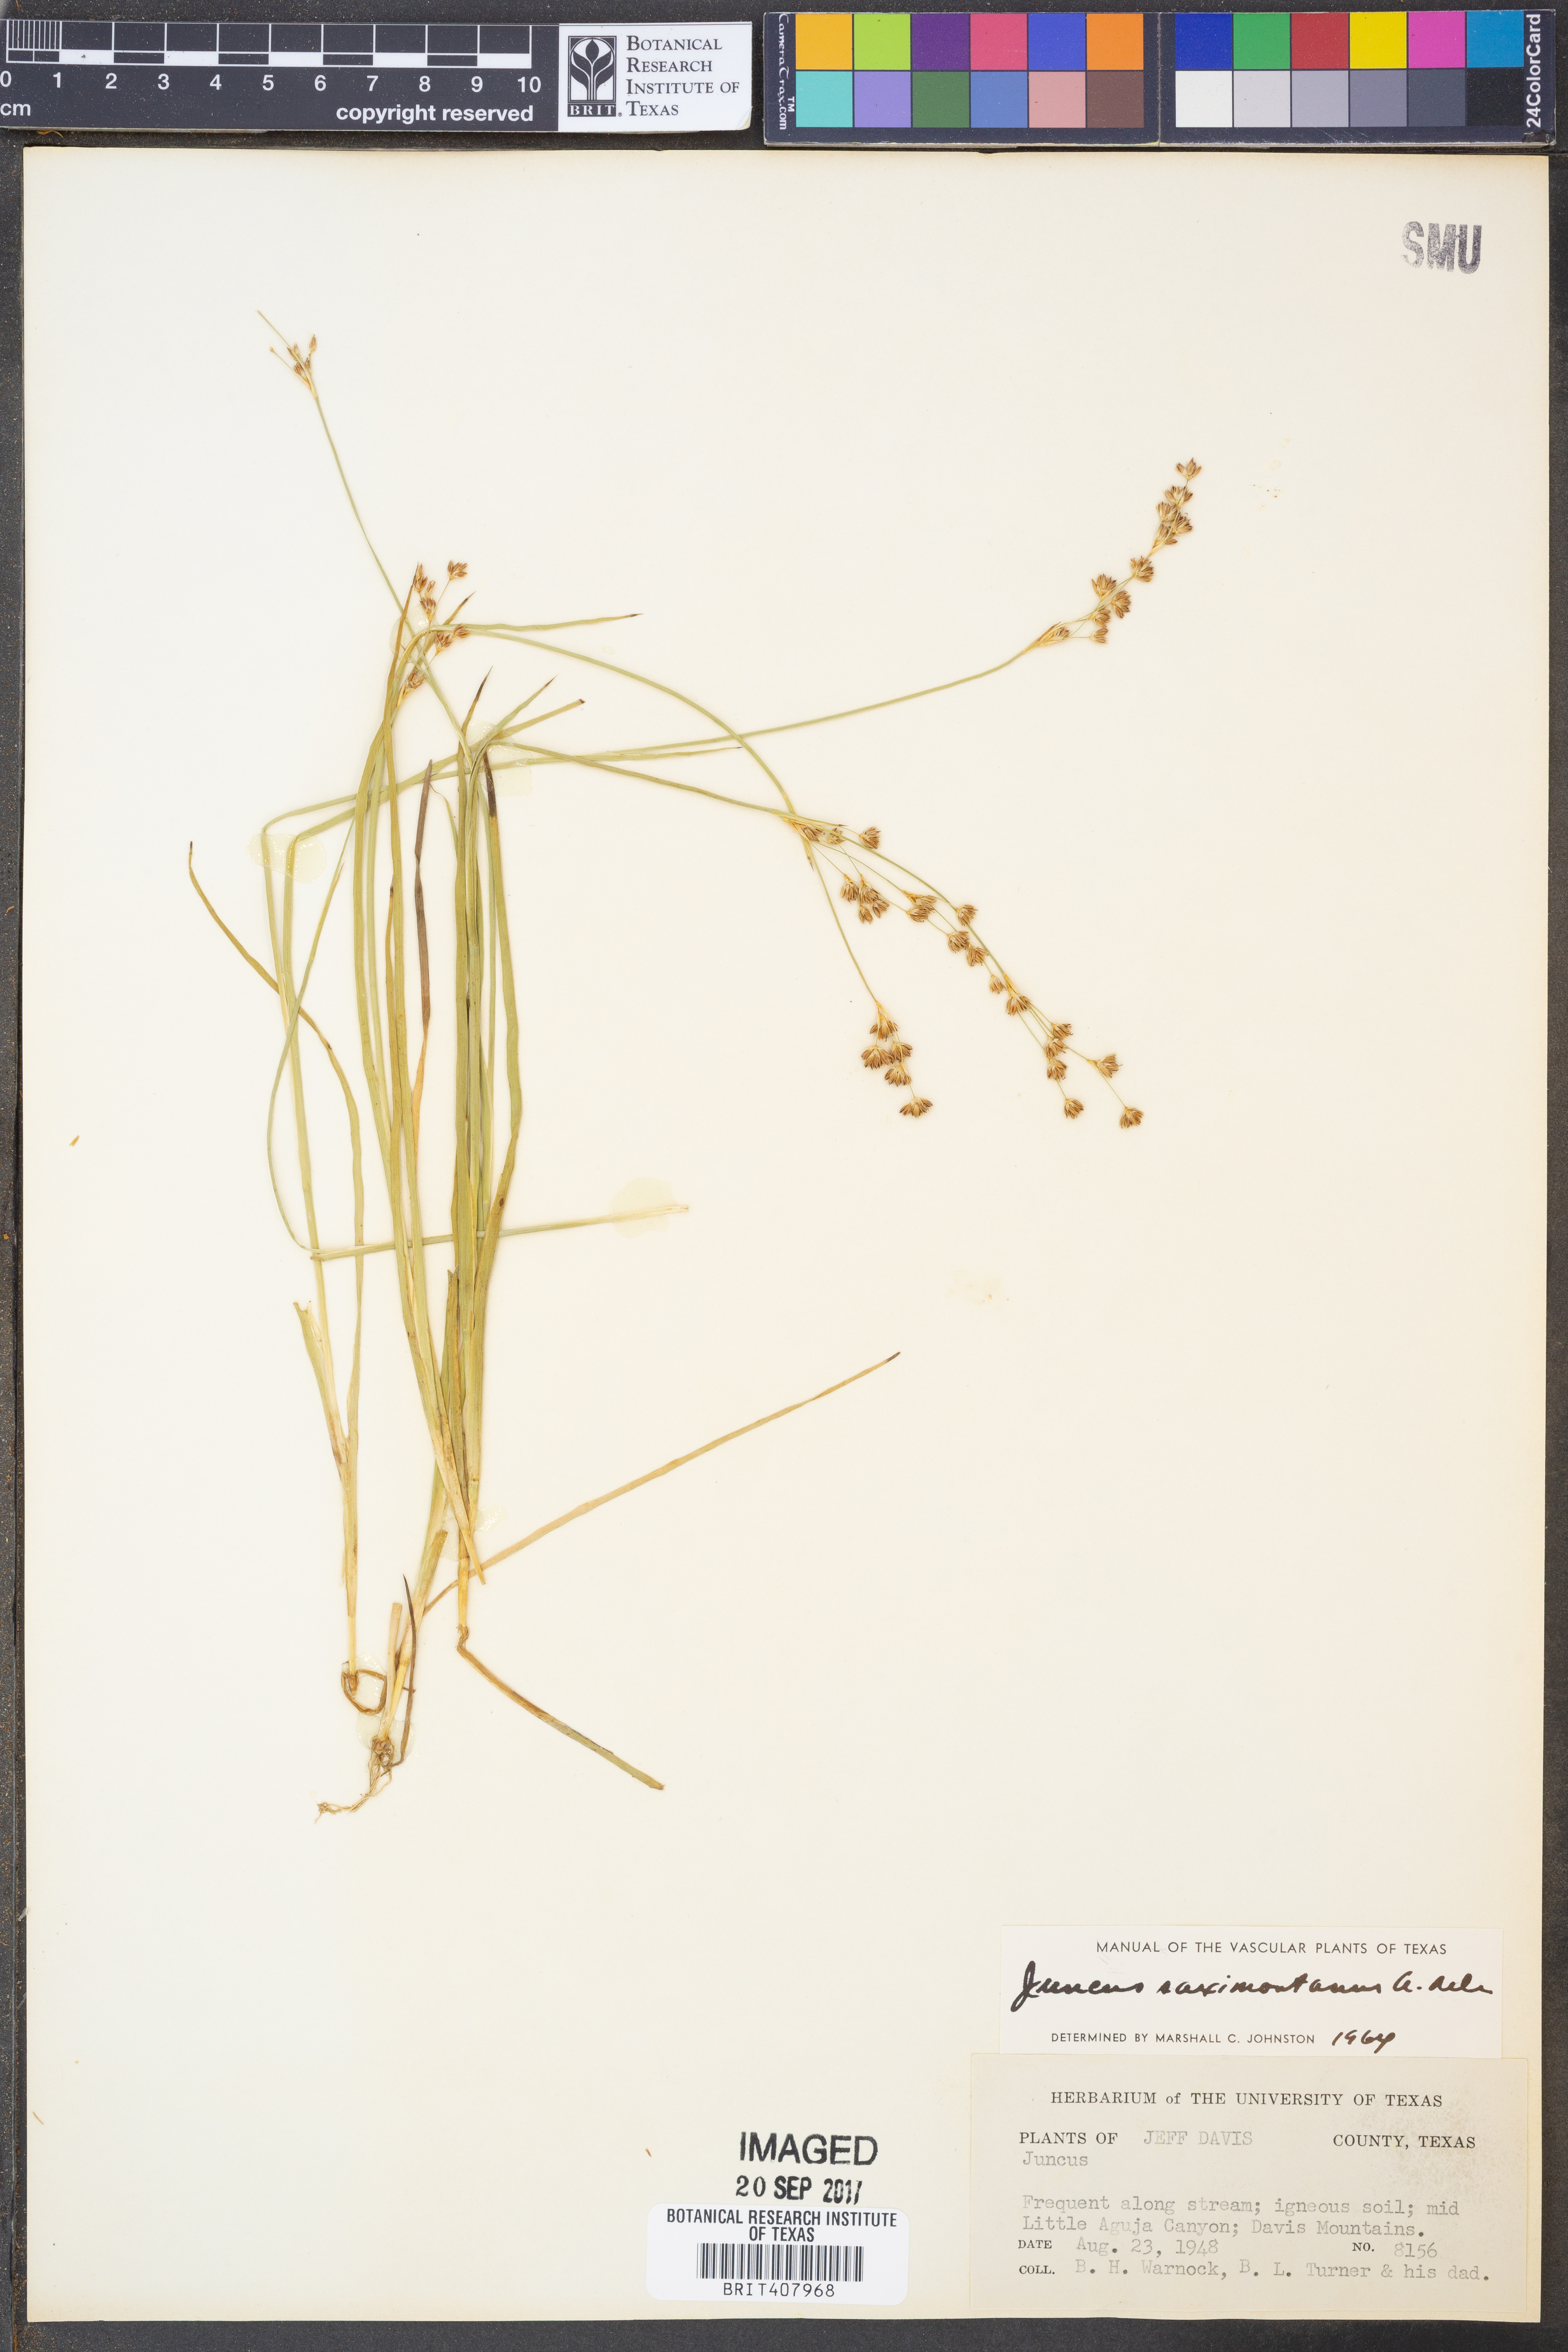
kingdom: Plantae
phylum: Tracheophyta
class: Liliopsida
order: Poales
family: Juncaceae
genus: Juncus
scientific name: Juncus saximontanus
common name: Rocky mountain rush
